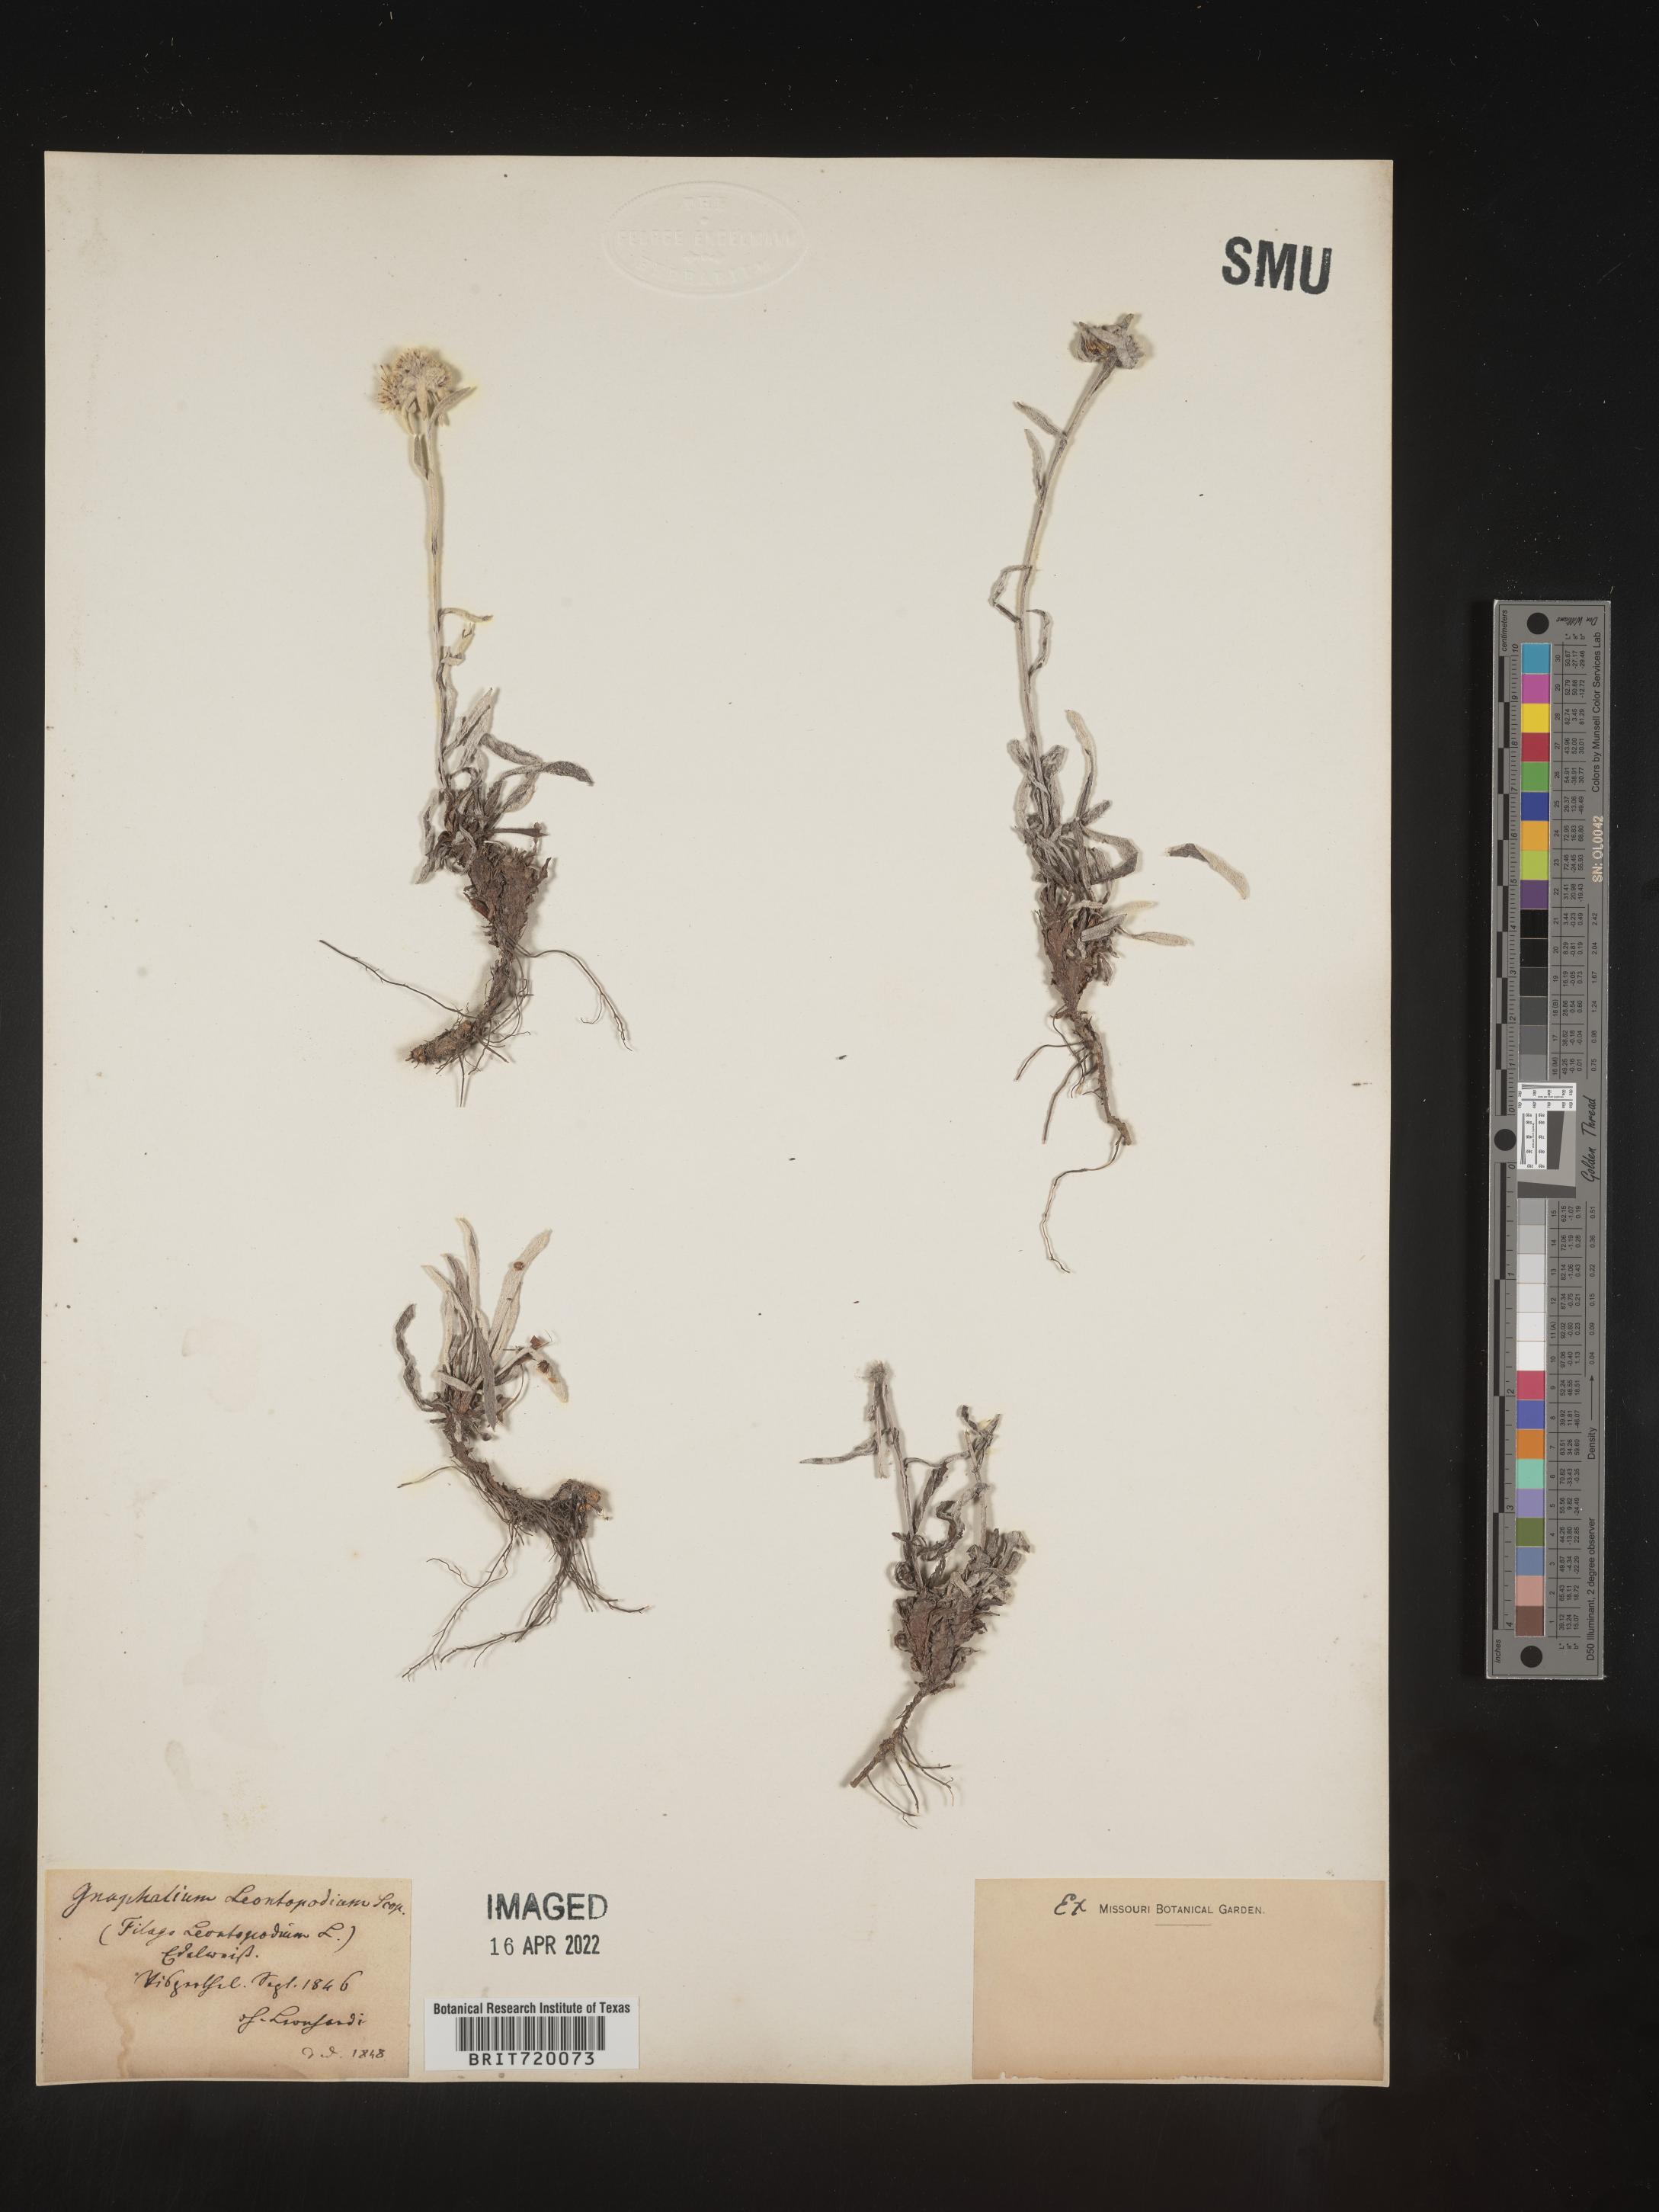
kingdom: Plantae
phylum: Tracheophyta
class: Magnoliopsida
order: Asterales
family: Asteraceae
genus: Gnaphalium
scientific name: Gnaphalium
